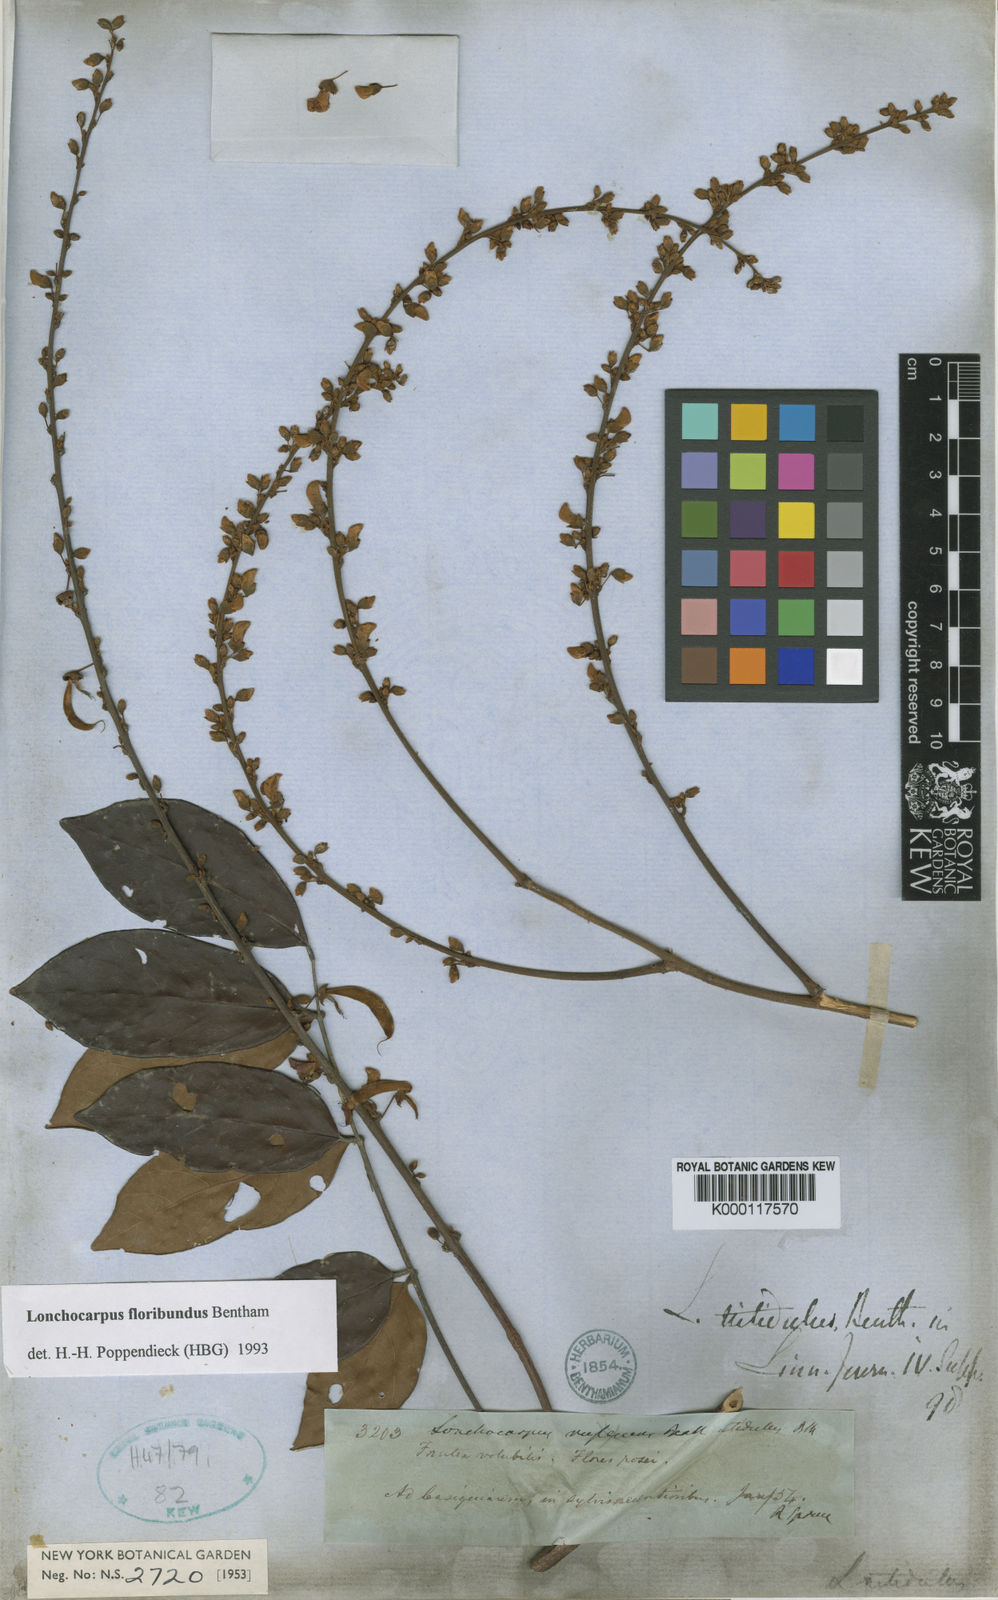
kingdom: Plantae
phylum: Tracheophyta
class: Magnoliopsida
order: Fabales
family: Fabaceae
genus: Deguelia
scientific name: Deguelia nitidula
